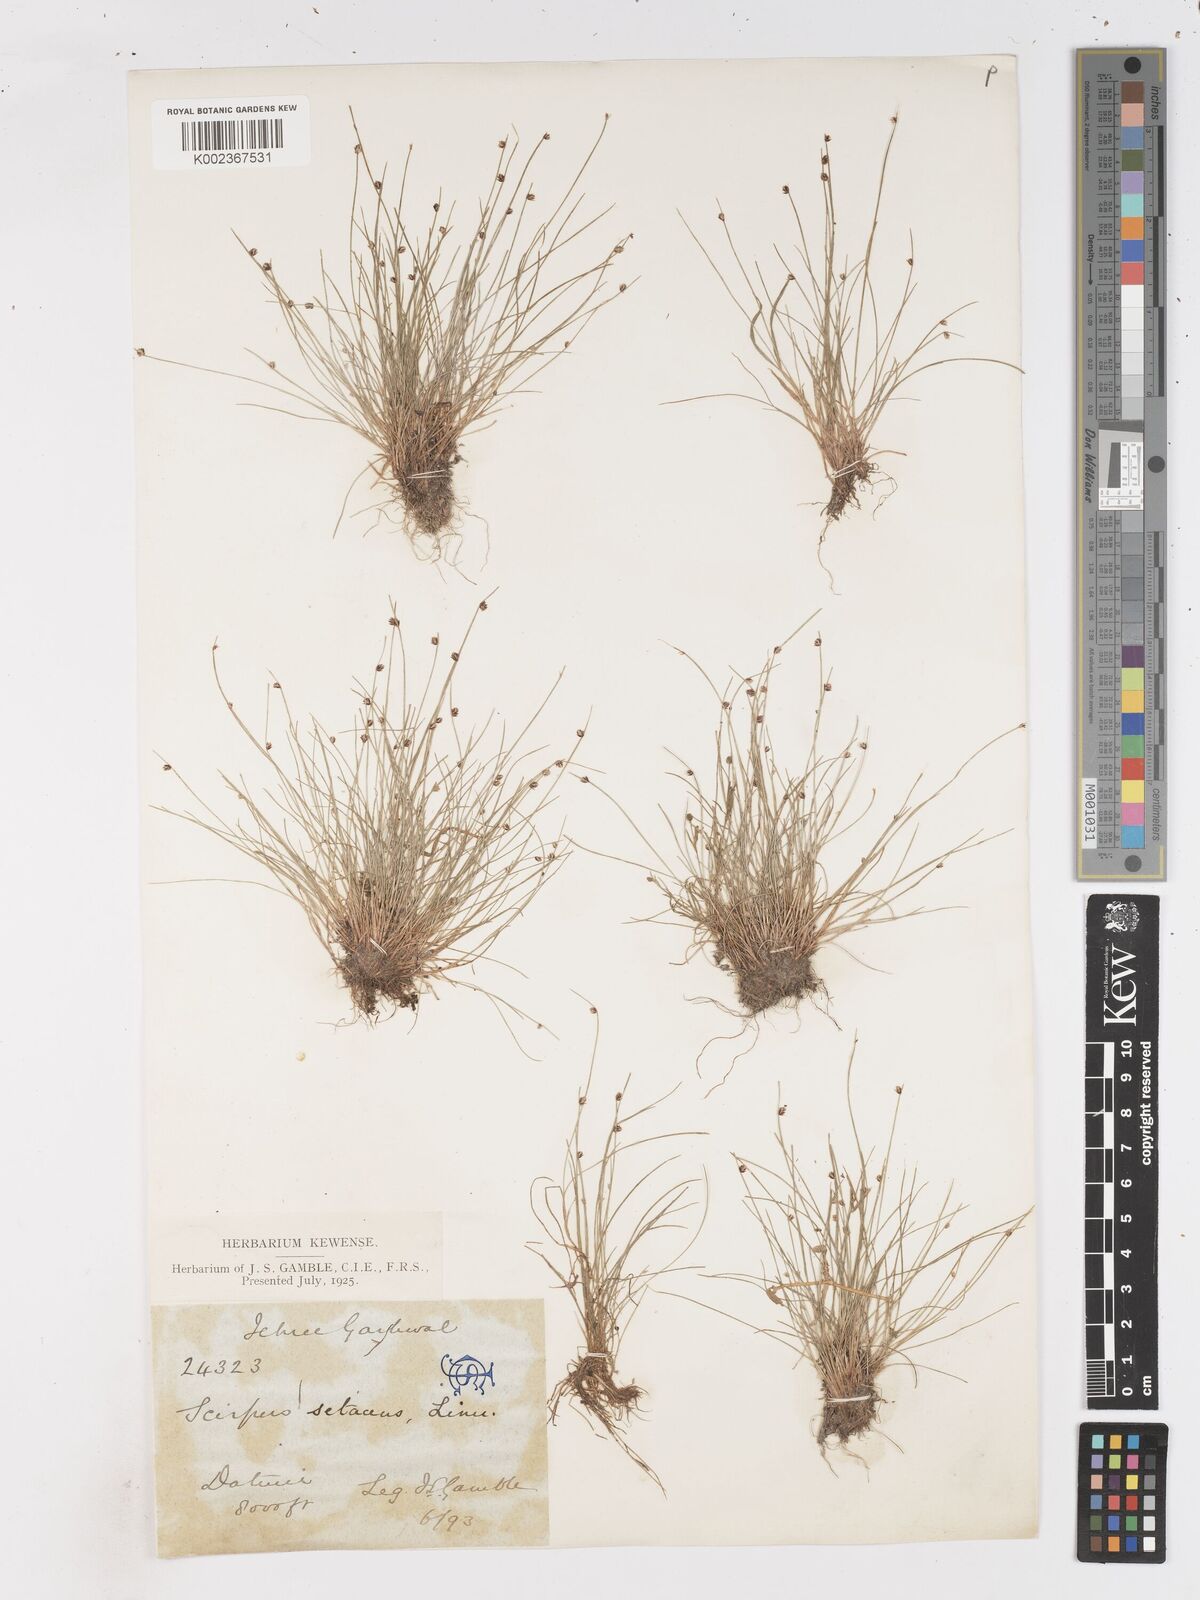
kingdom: Plantae
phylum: Tracheophyta
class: Liliopsida
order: Poales
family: Cyperaceae
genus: Isolepis
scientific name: Isolepis setacea
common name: Bristle club-rush
